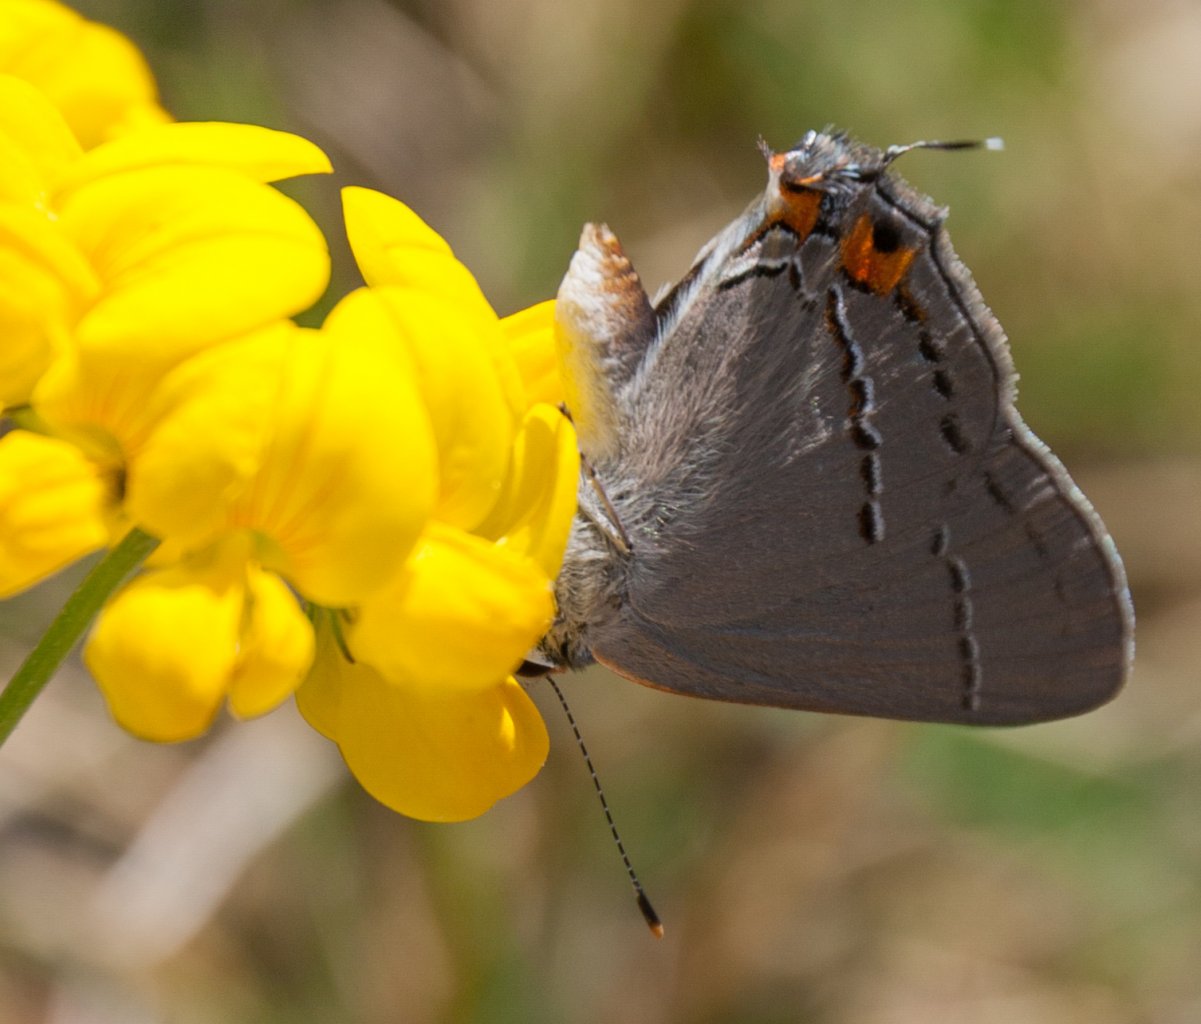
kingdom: Animalia
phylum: Arthropoda
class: Insecta
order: Lepidoptera
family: Lycaenidae
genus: Strymon
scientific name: Strymon melinus
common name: Gray Hairstreak
